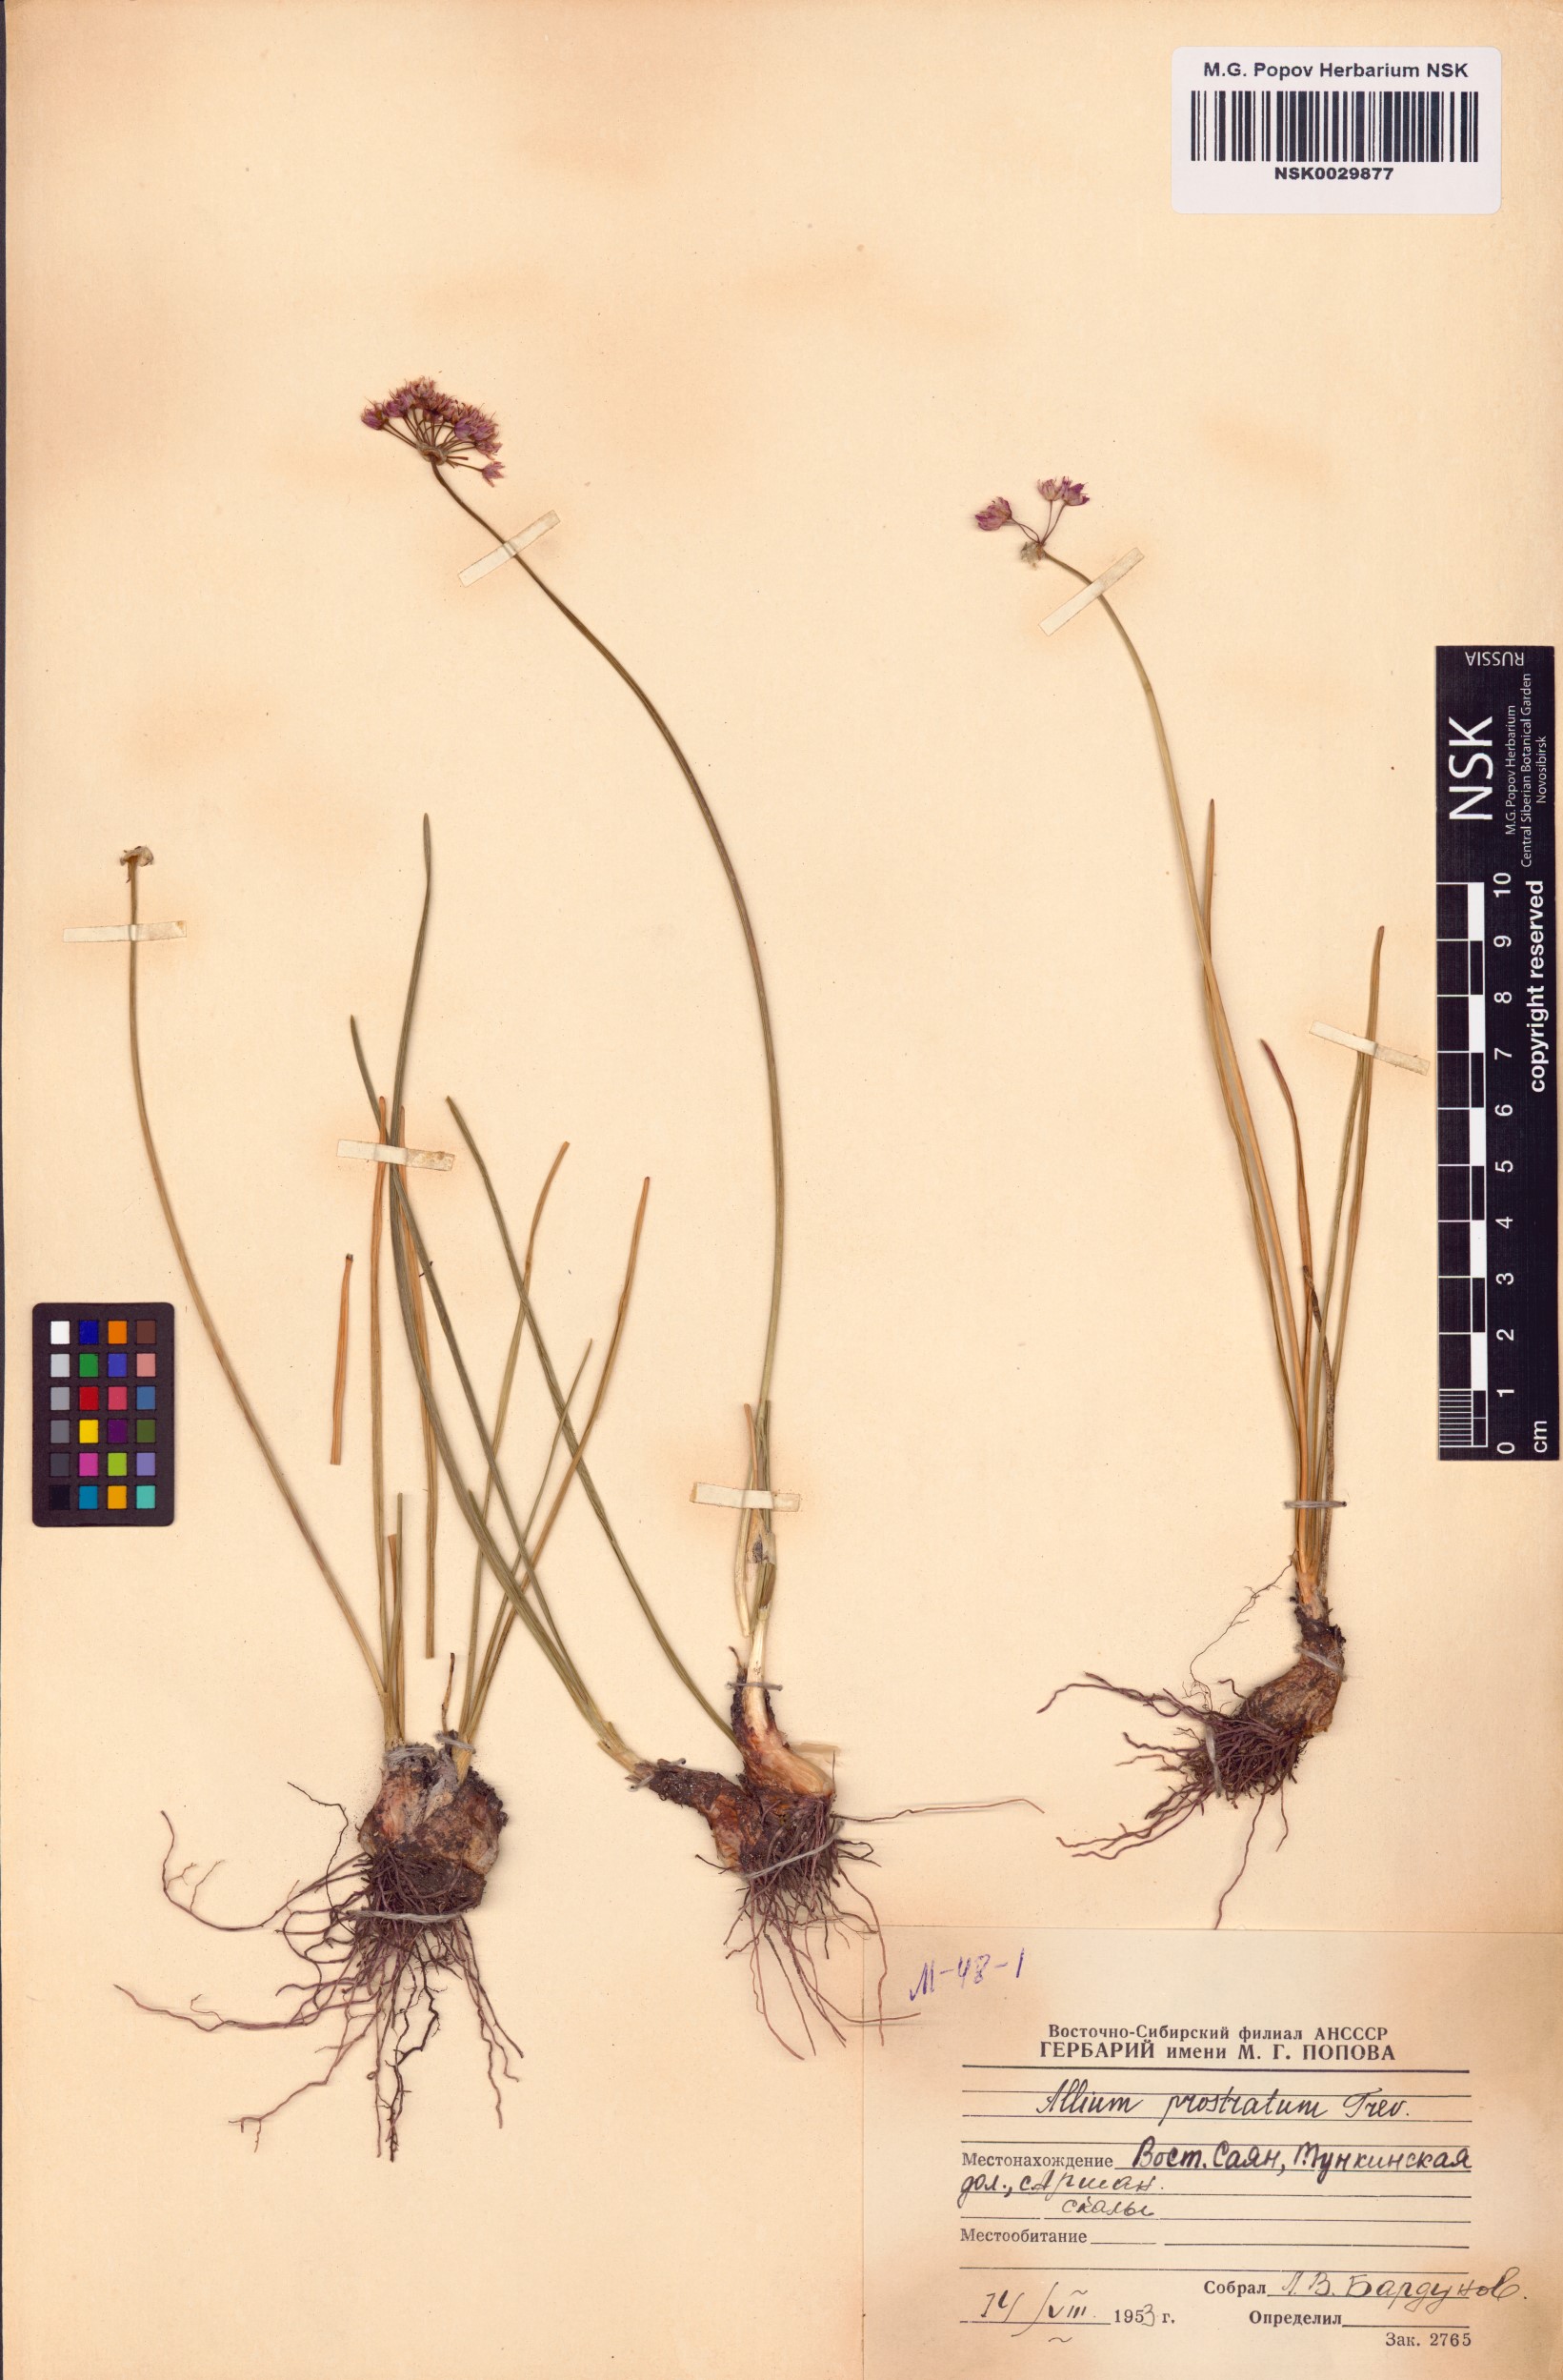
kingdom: Plantae
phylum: Tracheophyta
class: Liliopsida
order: Asparagales
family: Amaryllidaceae
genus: Allium
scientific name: Allium prostratum
